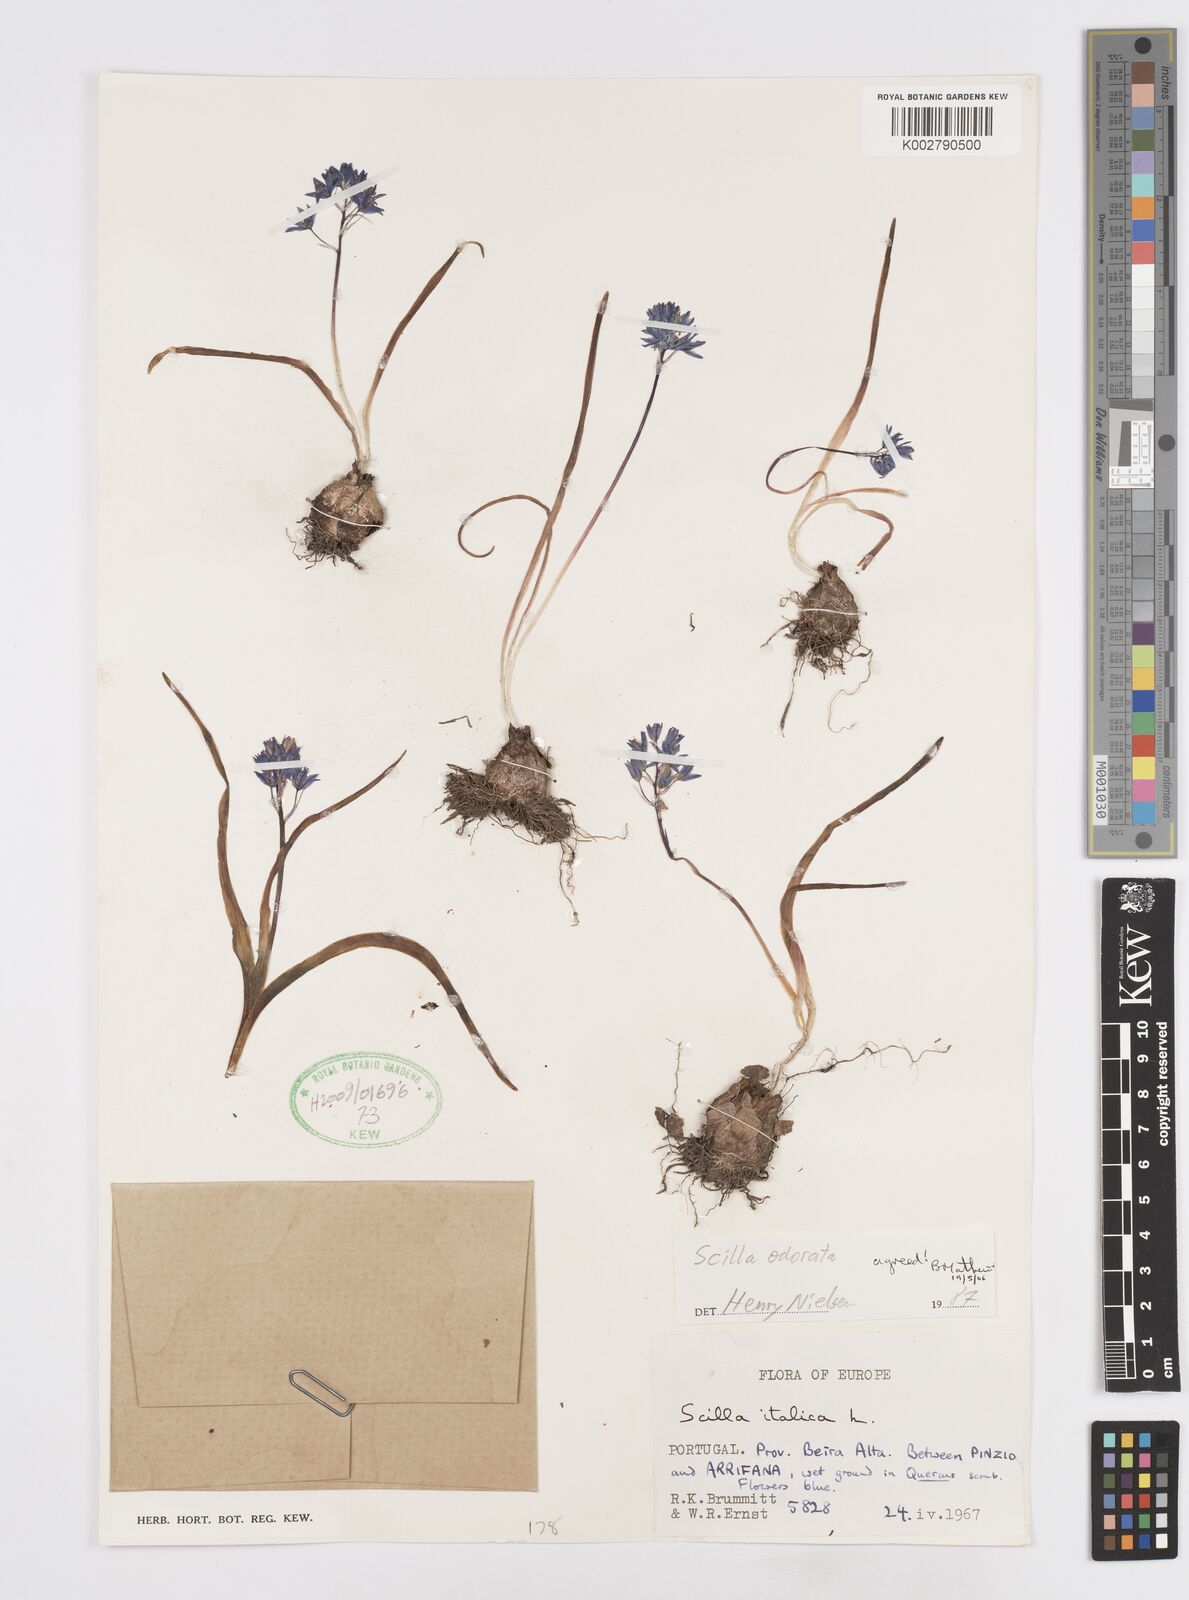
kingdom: Plantae
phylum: Tracheophyta
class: Liliopsida
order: Asparagales
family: Asparagaceae
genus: Scilla
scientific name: Scilla verna
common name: Spring squill
